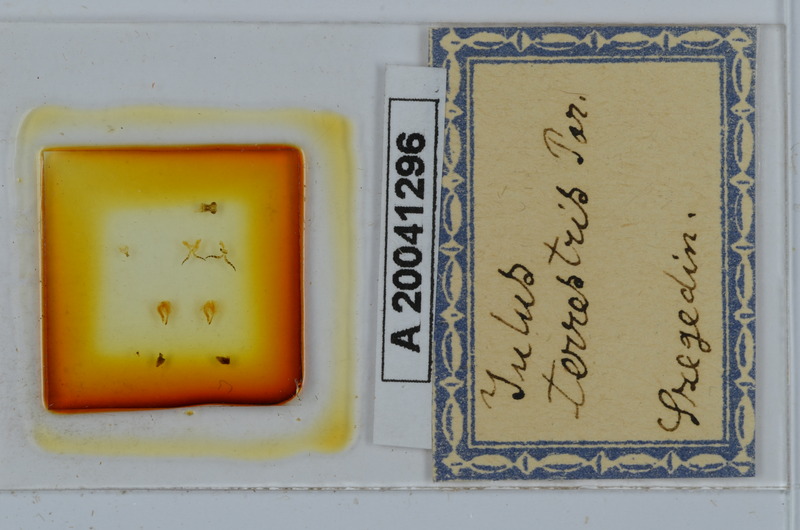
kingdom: Animalia
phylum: Arthropoda
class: Diplopoda
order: Julida
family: Julidae
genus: Julus
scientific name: Julus terrestris
